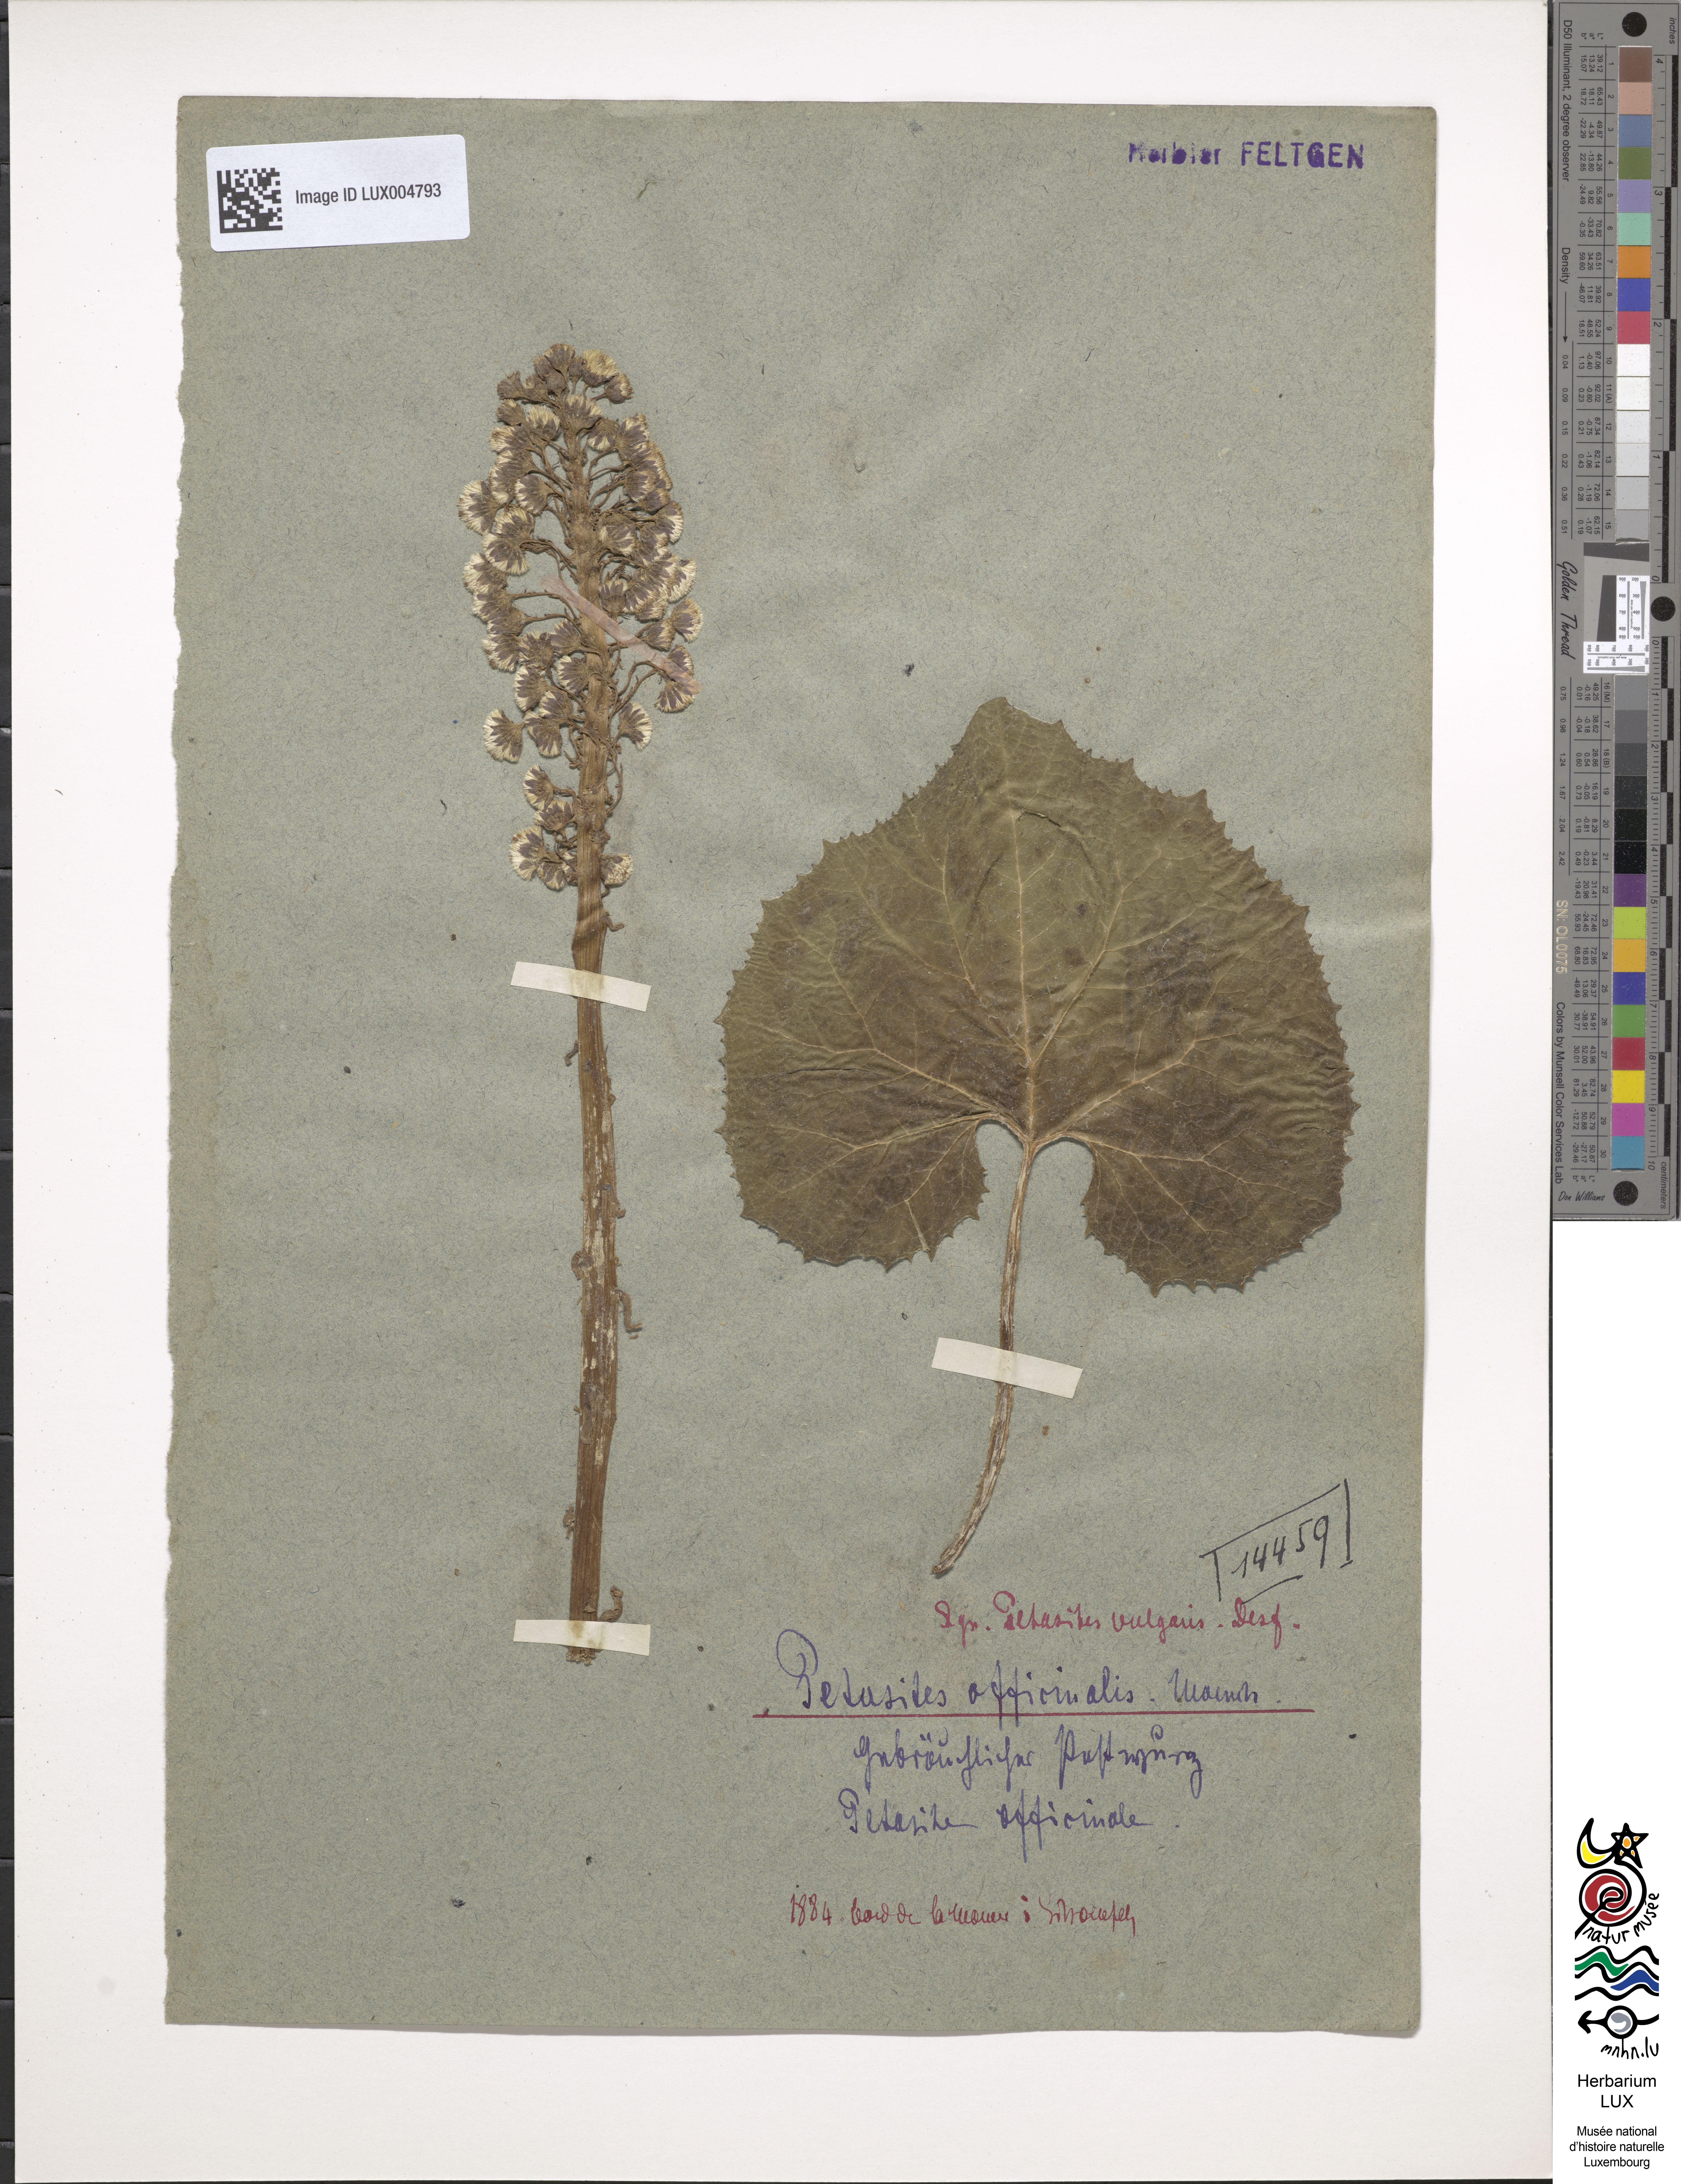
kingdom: Plantae
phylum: Tracheophyta
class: Magnoliopsida
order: Asterales
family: Asteraceae
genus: Petasites
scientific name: Petasites hybridus
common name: Butterbur
